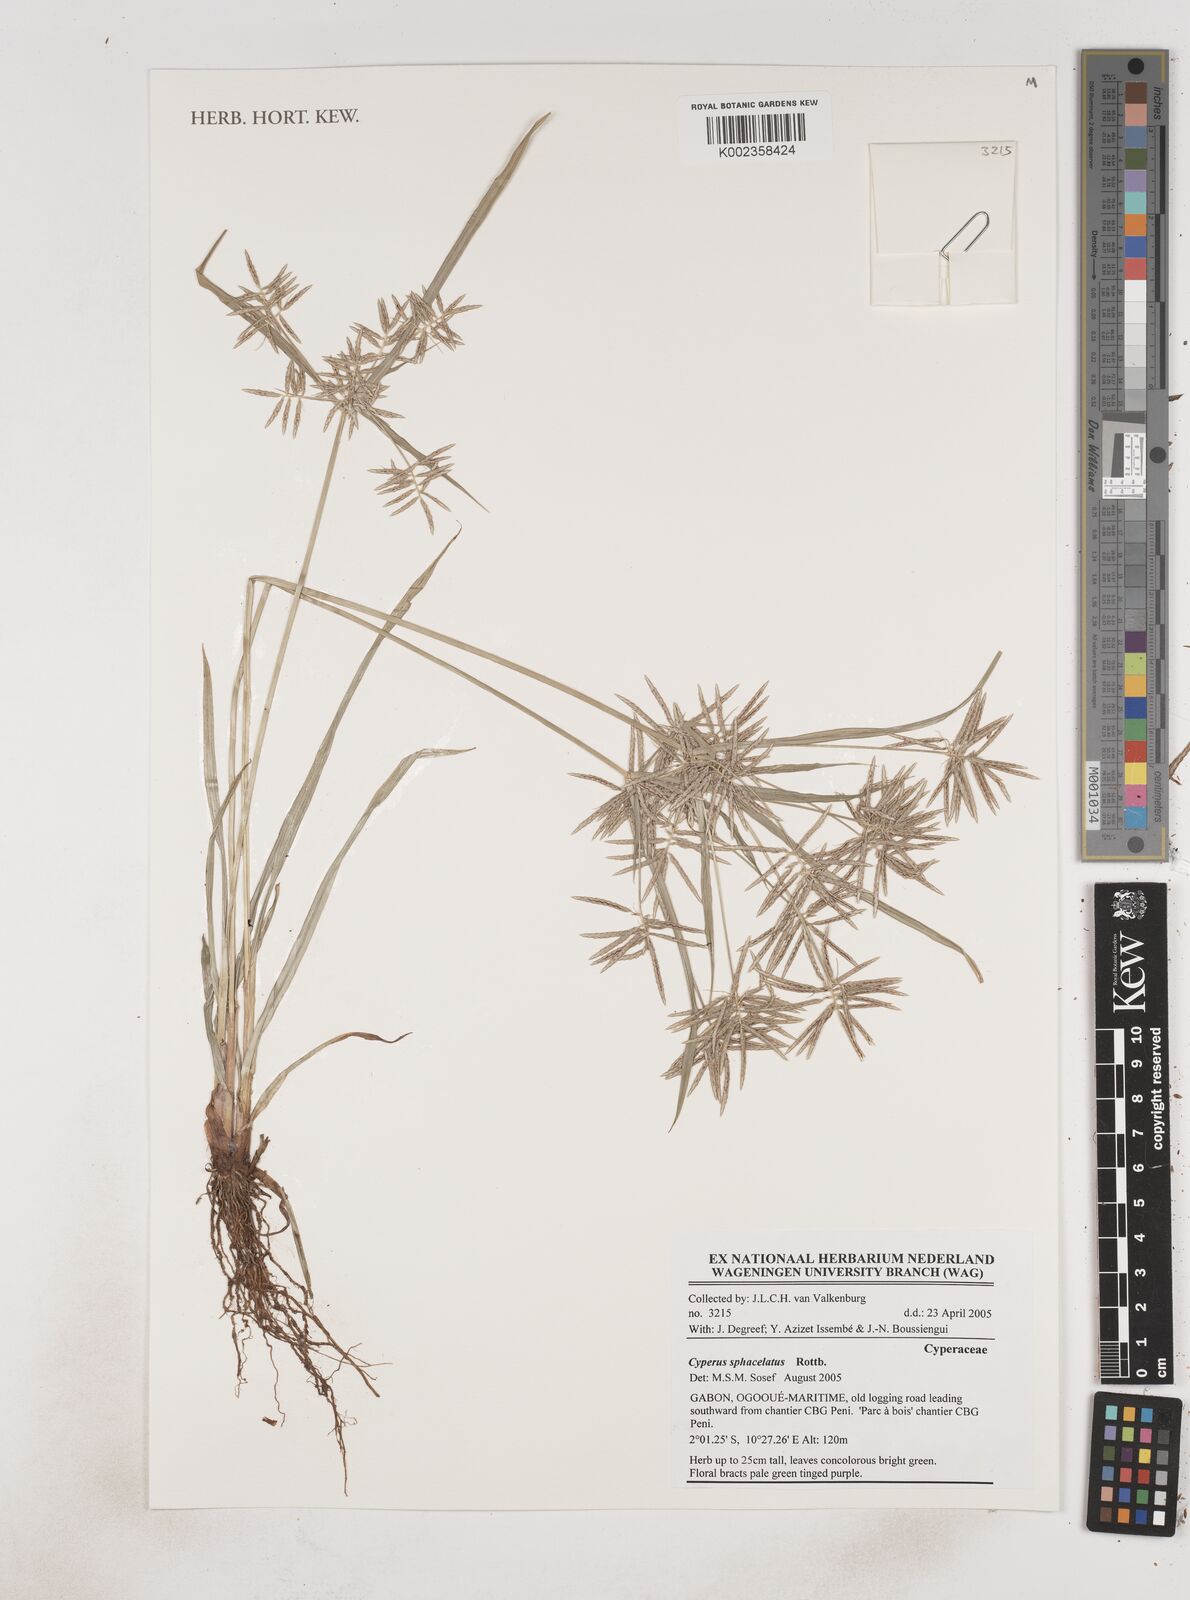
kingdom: Plantae
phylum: Tracheophyta
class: Liliopsida
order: Poales
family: Cyperaceae
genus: Cyperus
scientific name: Cyperus sphacelatus
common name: Roadside flatsedge
